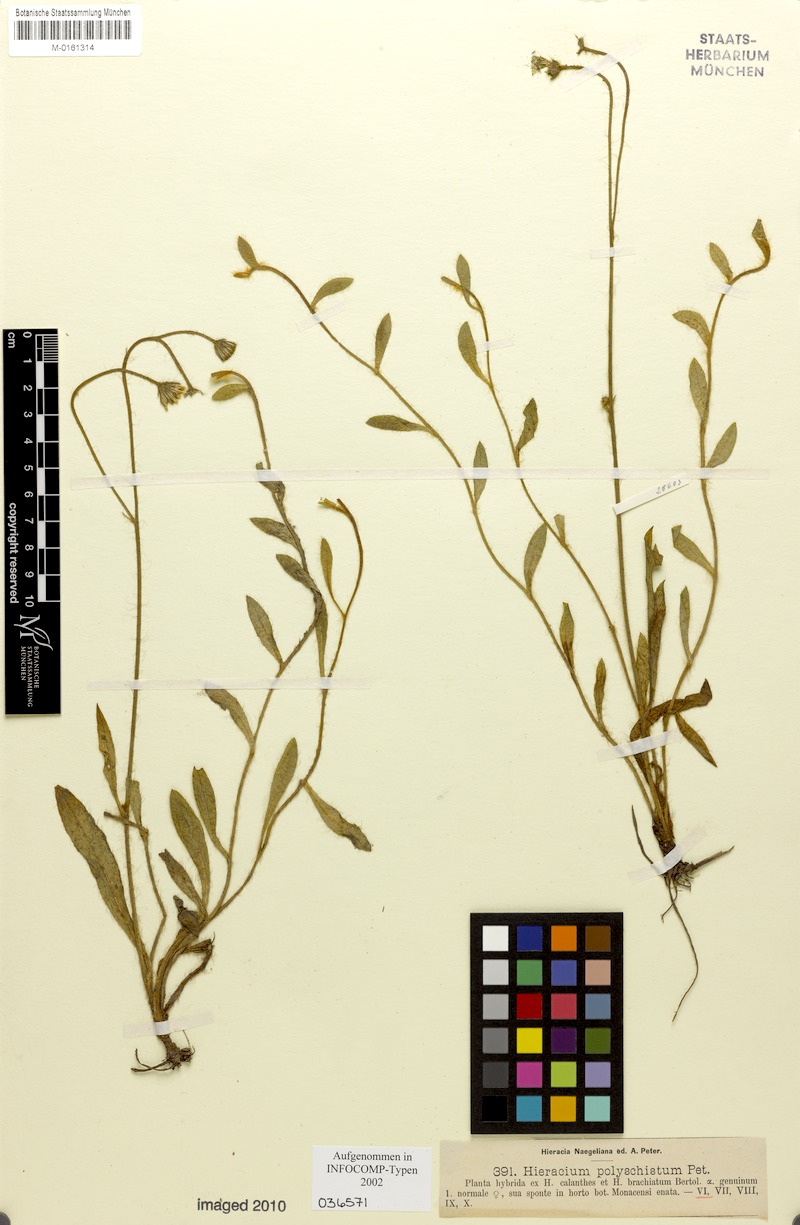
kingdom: Plantae
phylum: Tracheophyta
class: Magnoliopsida
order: Asterales
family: Asteraceae
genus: Hieracium
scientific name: Hieracium polyschistum
